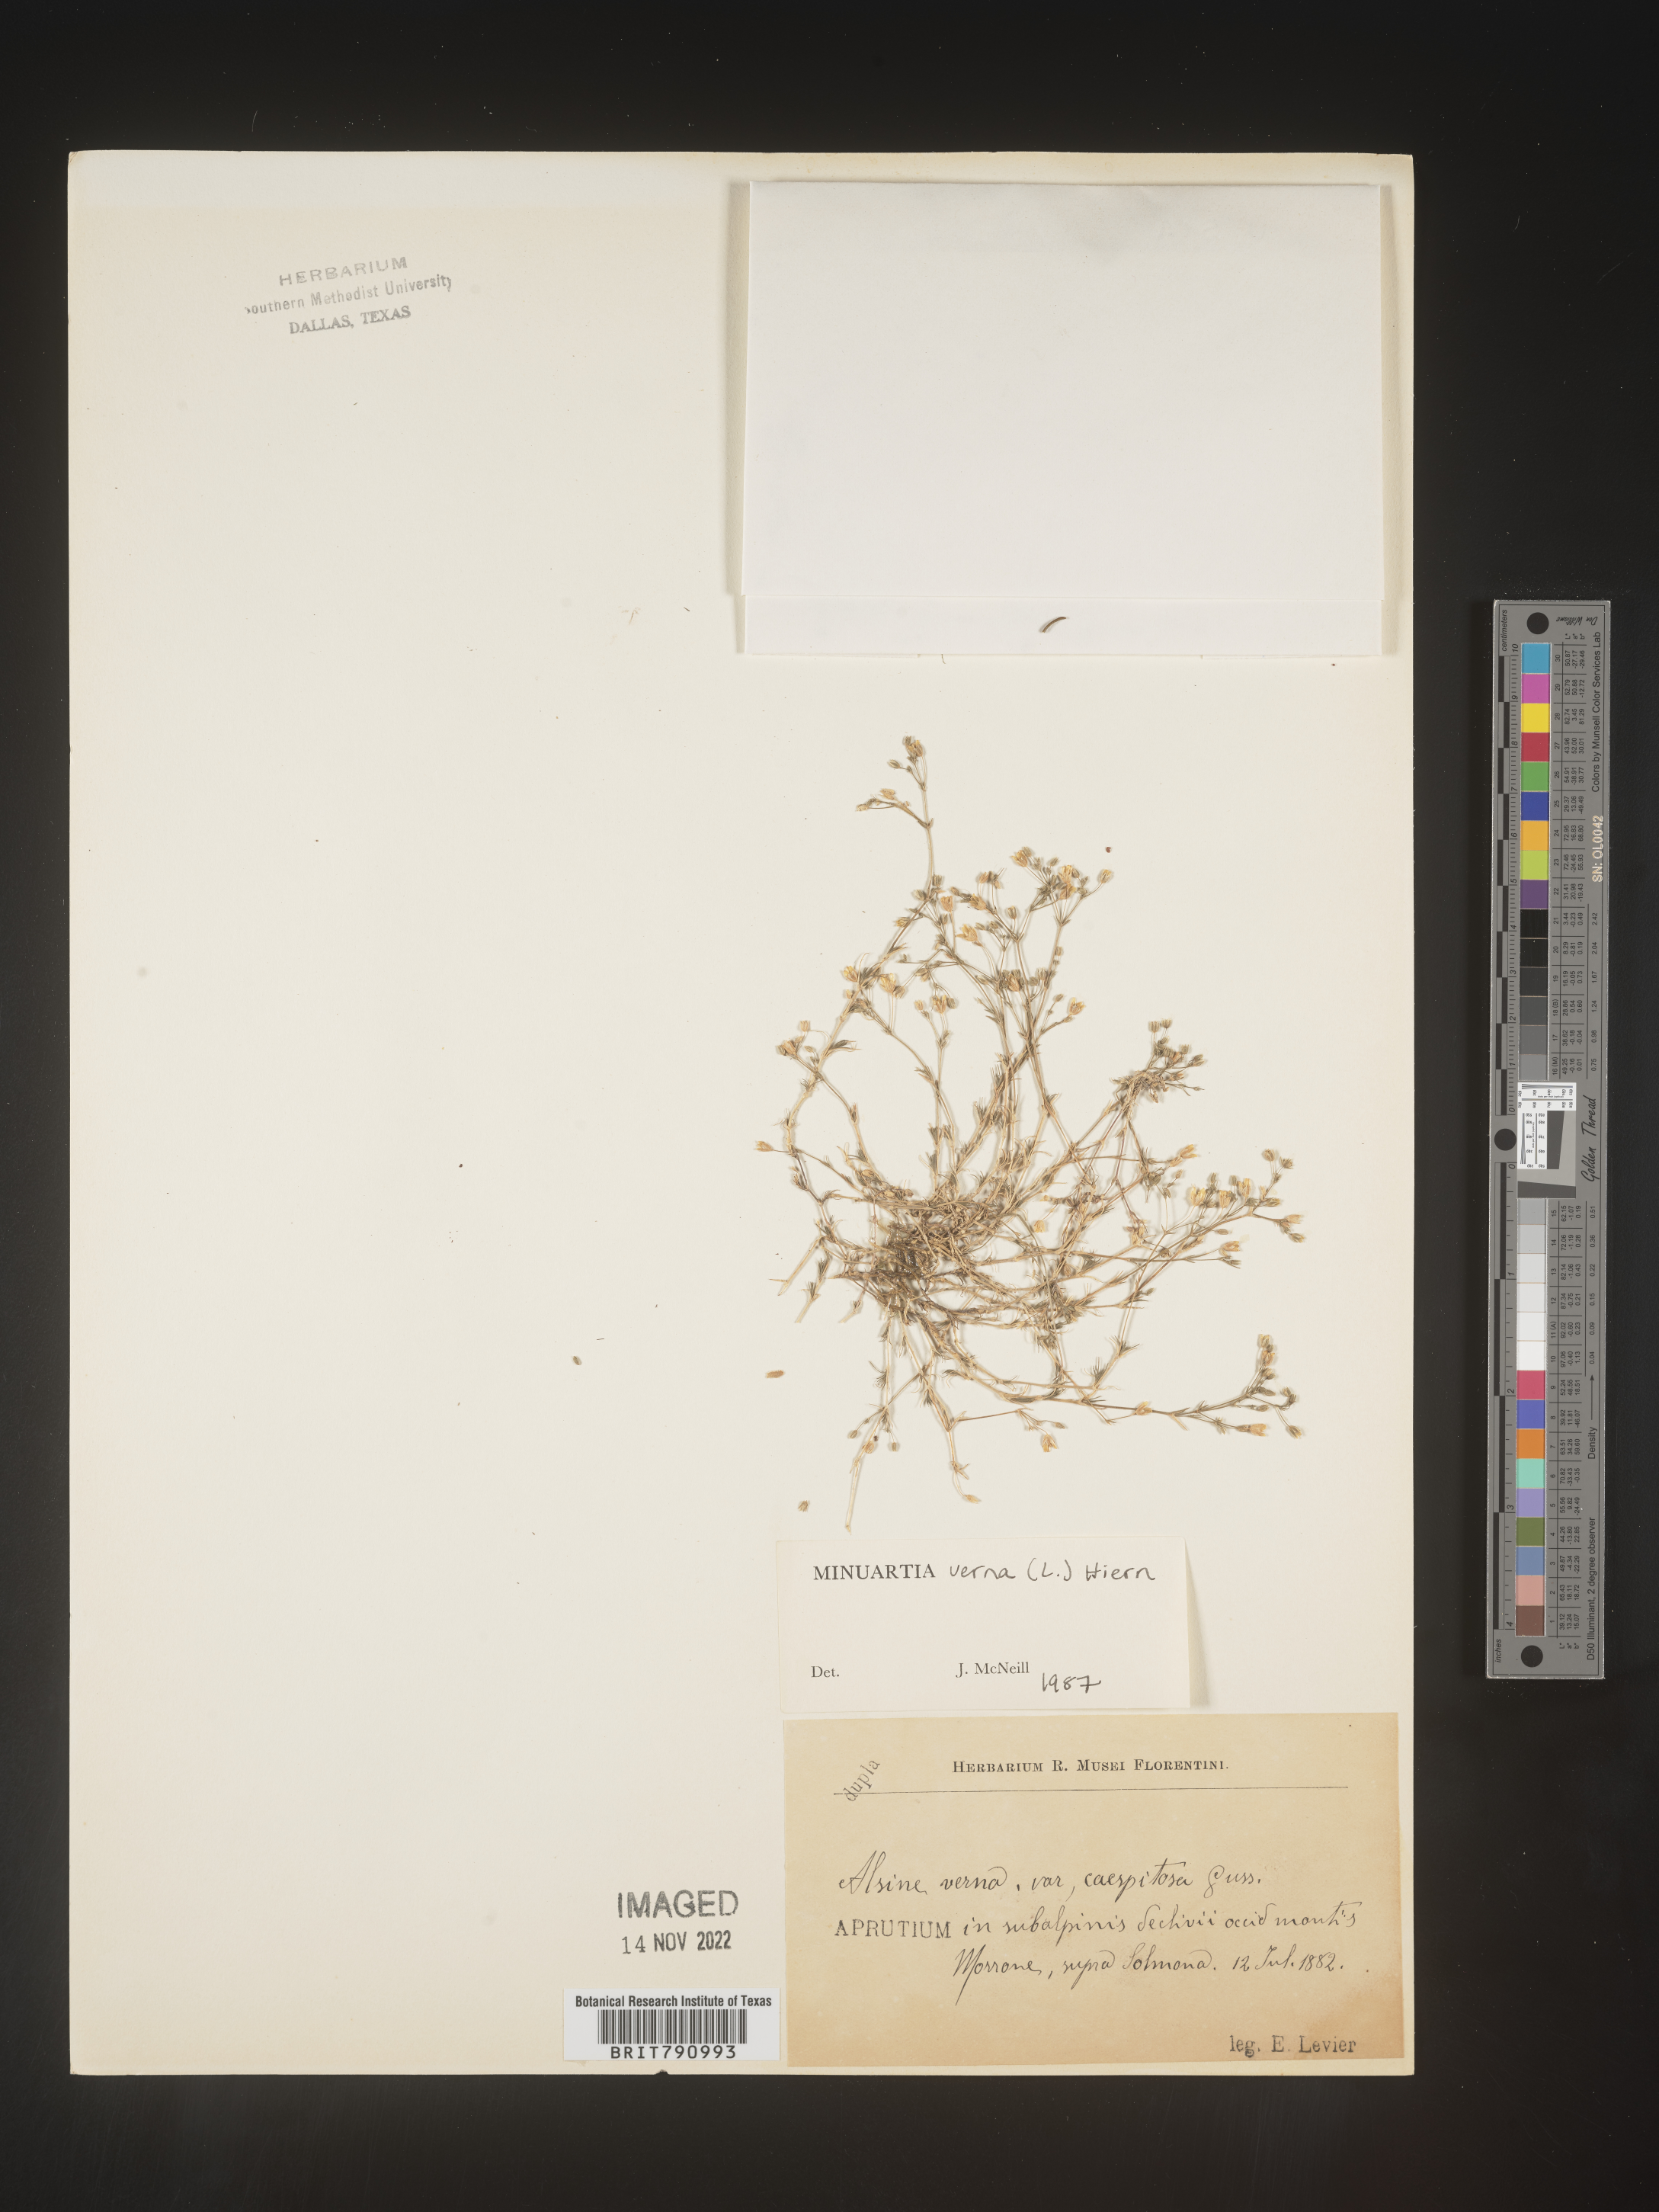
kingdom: Plantae
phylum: Tracheophyta
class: Magnoliopsida
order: Caryophyllales
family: Caryophyllaceae
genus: Minuartia
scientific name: Minuartia
